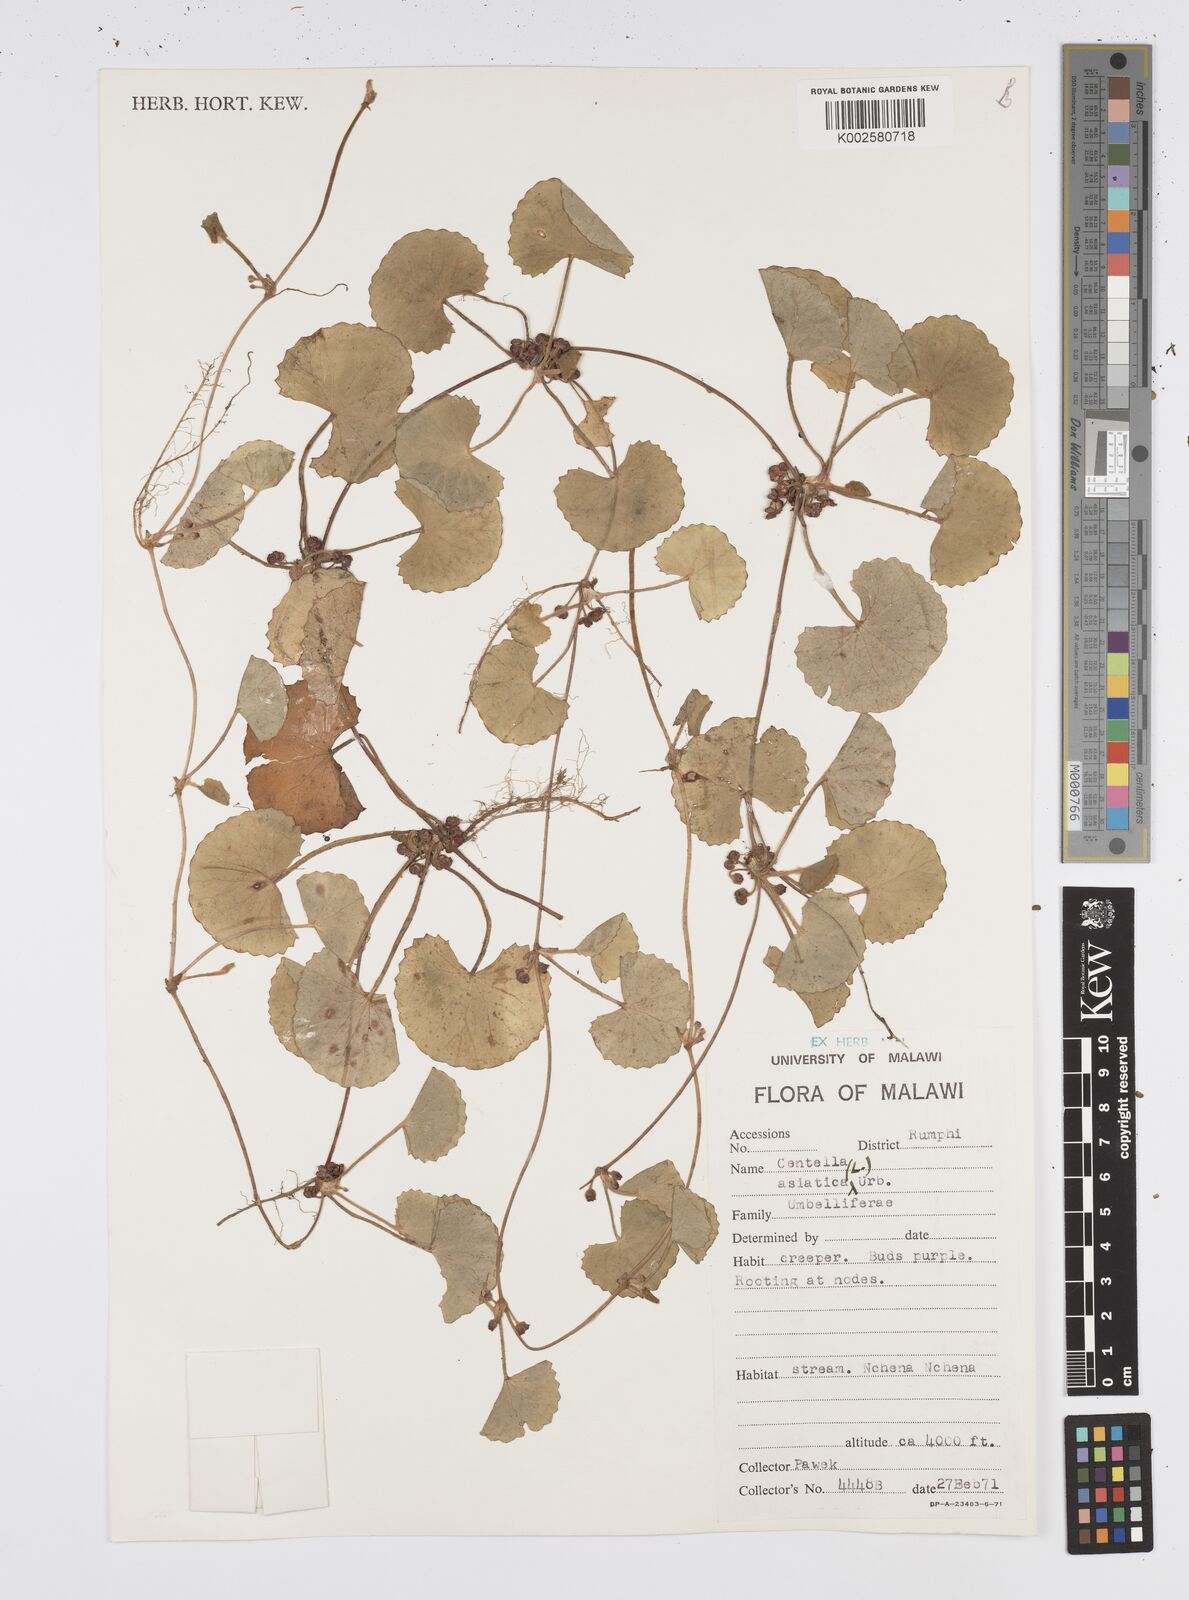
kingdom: Plantae
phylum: Tracheophyta
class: Magnoliopsida
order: Apiales
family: Apiaceae
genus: Centella
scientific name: Centella asiatica
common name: Spadeleaf
